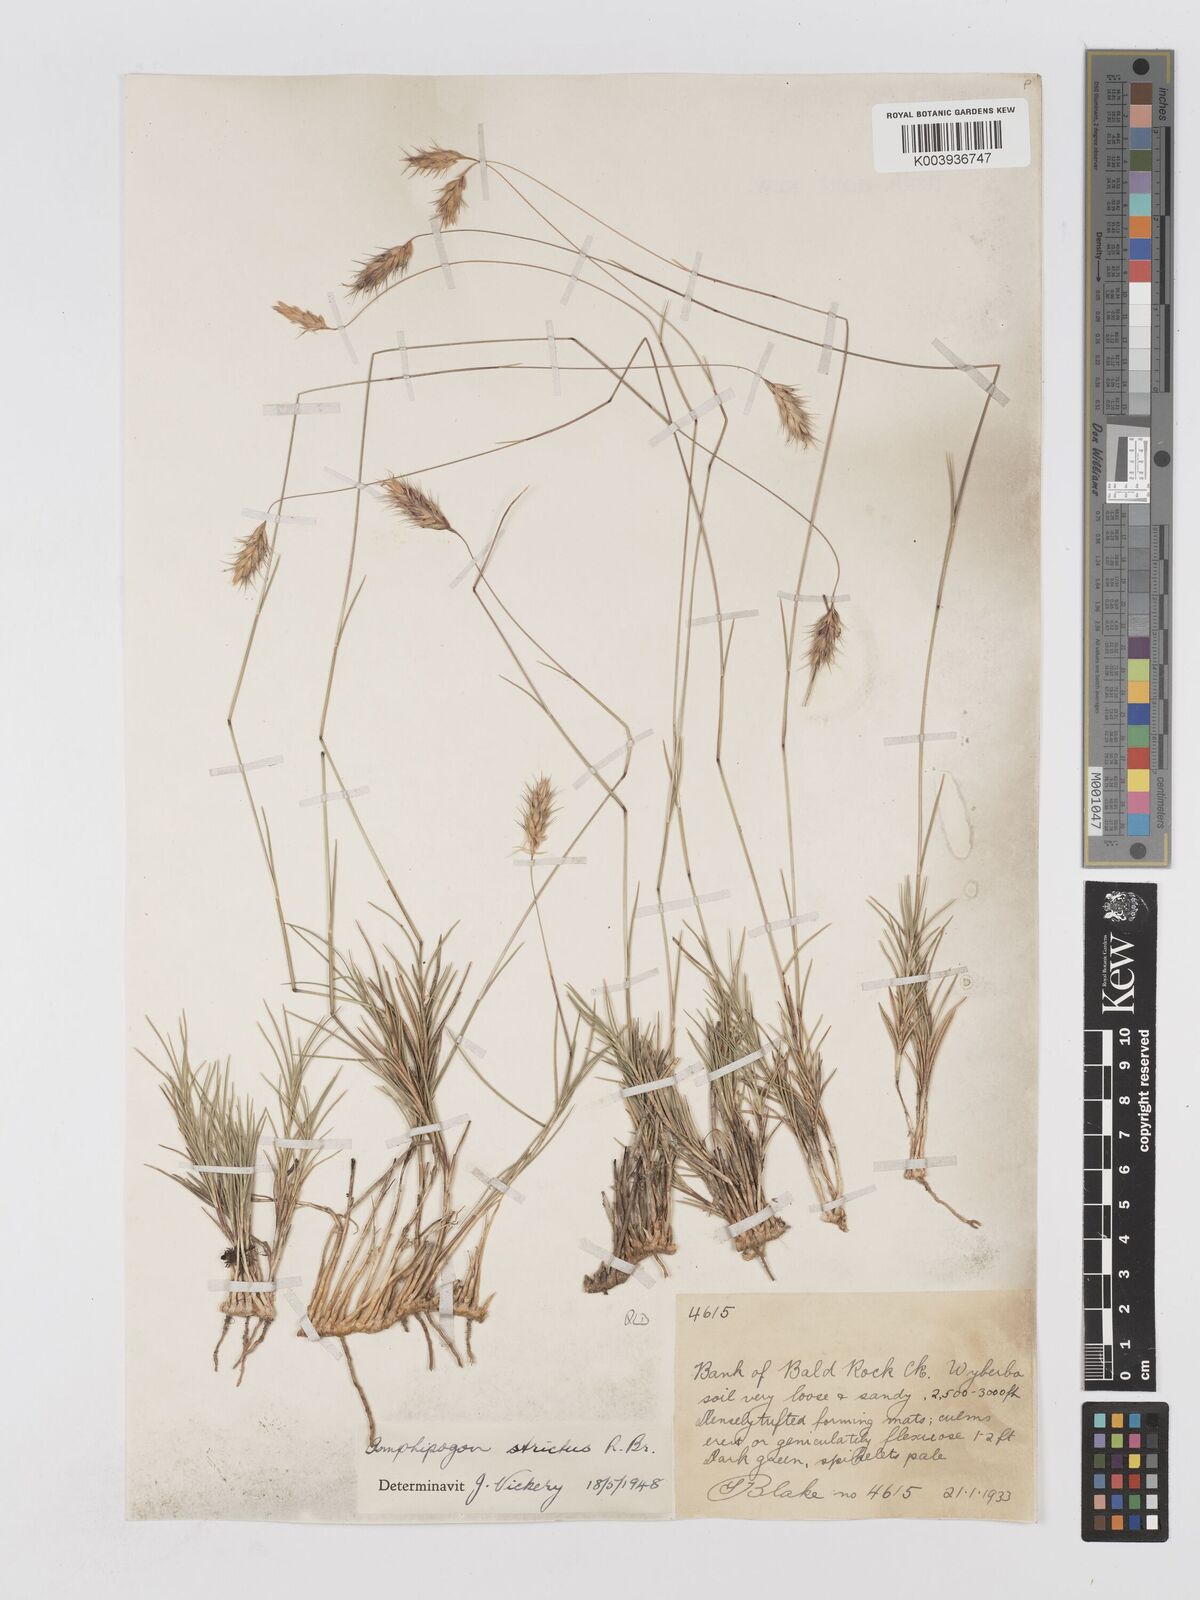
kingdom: Plantae
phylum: Tracheophyta
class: Liliopsida
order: Poales
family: Poaceae
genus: Amphipogon
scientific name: Amphipogon strictus
